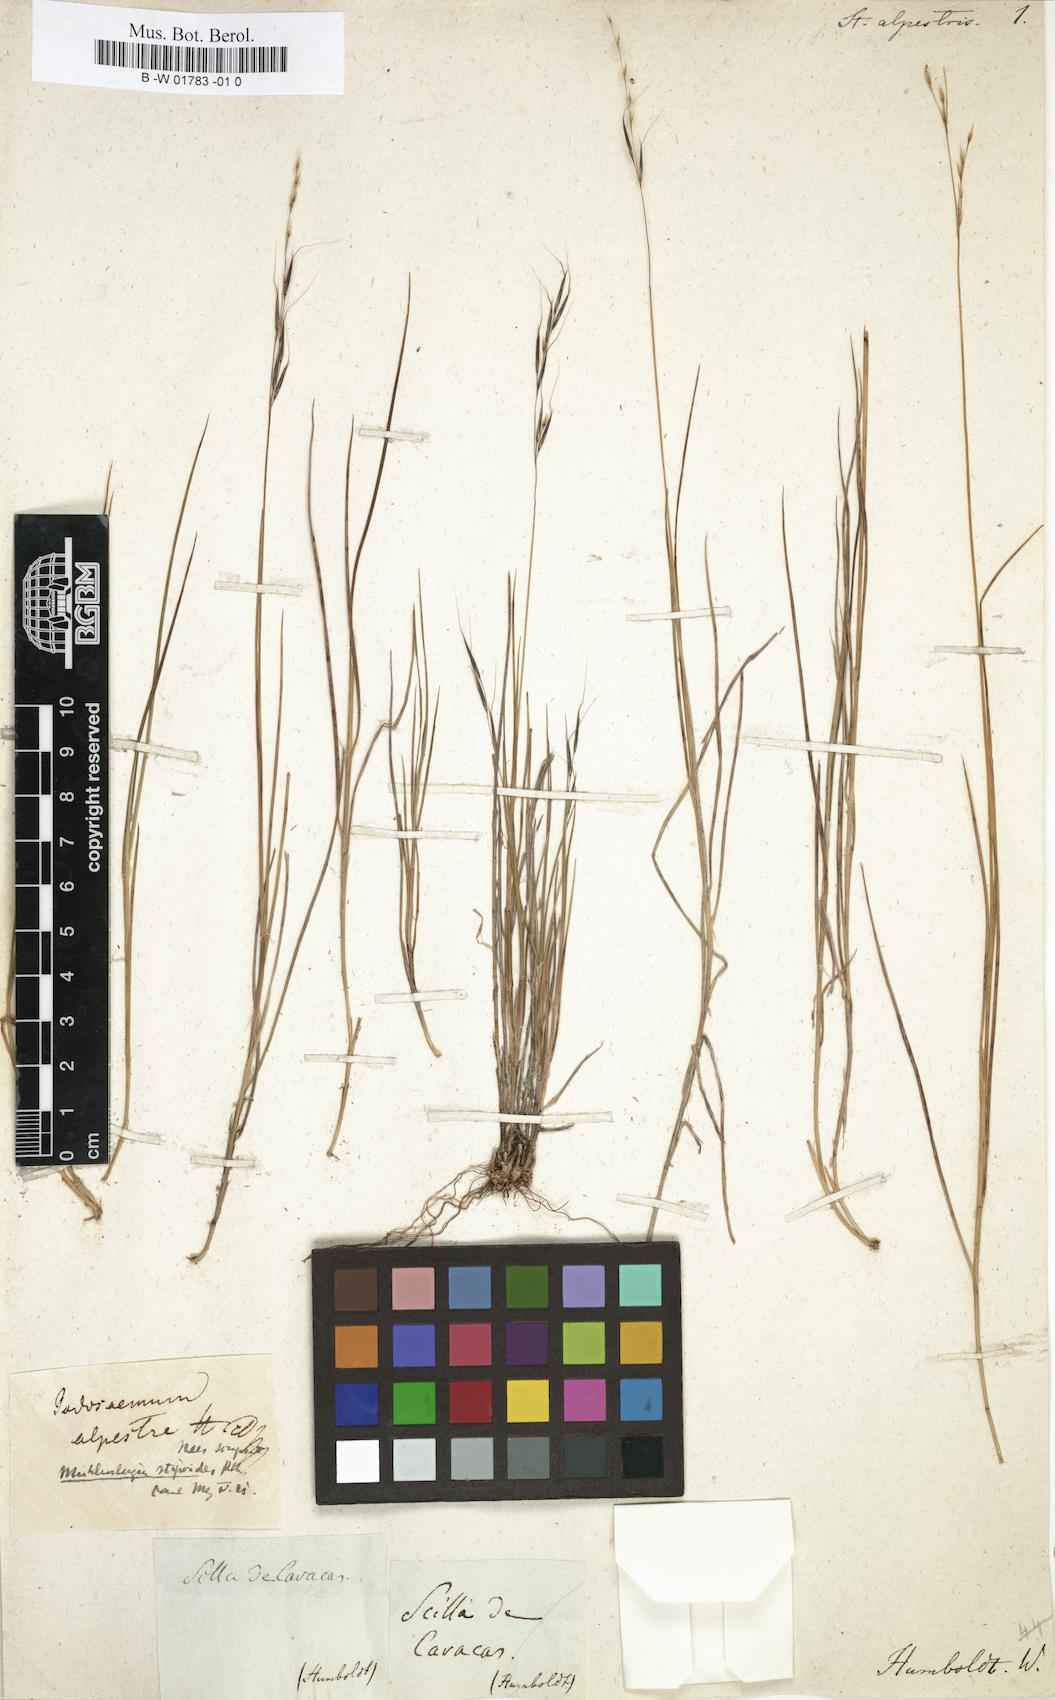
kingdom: Plantae
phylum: Tracheophyta
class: Liliopsida
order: Poales
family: Poaceae
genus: Triniochloa
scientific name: Triniochloa stipoides
